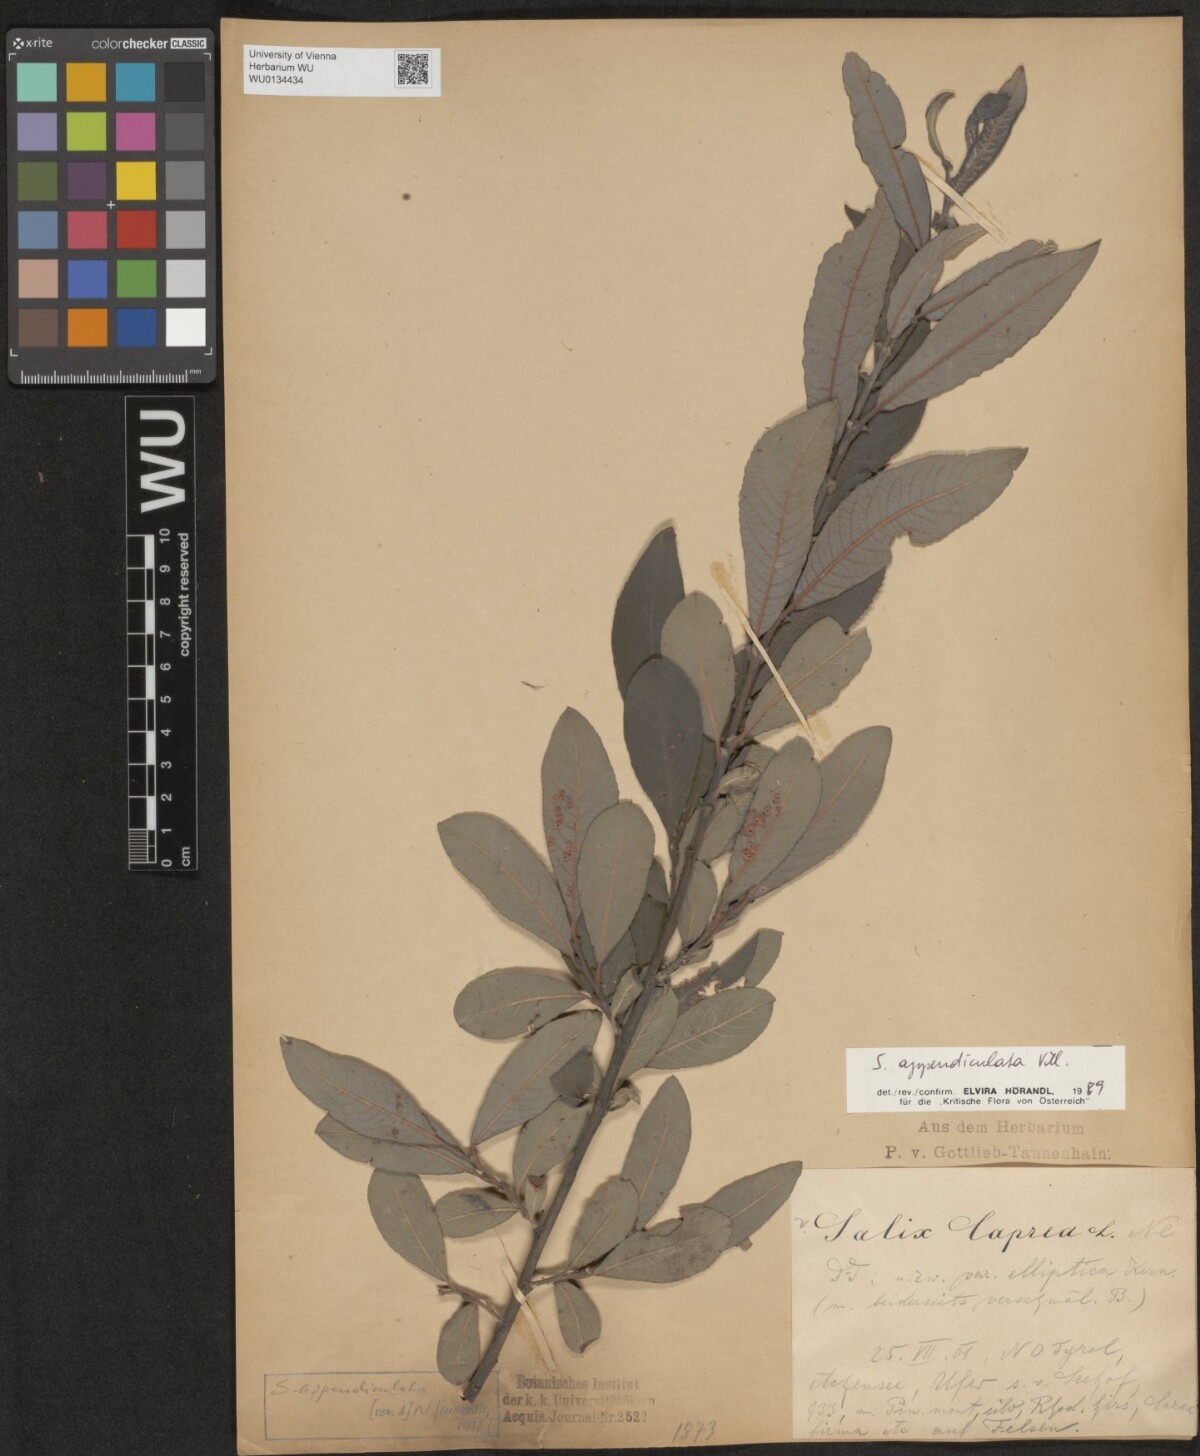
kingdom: Plantae
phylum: Tracheophyta
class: Magnoliopsida
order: Malpighiales
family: Salicaceae
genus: Salix
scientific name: Salix appendiculata
